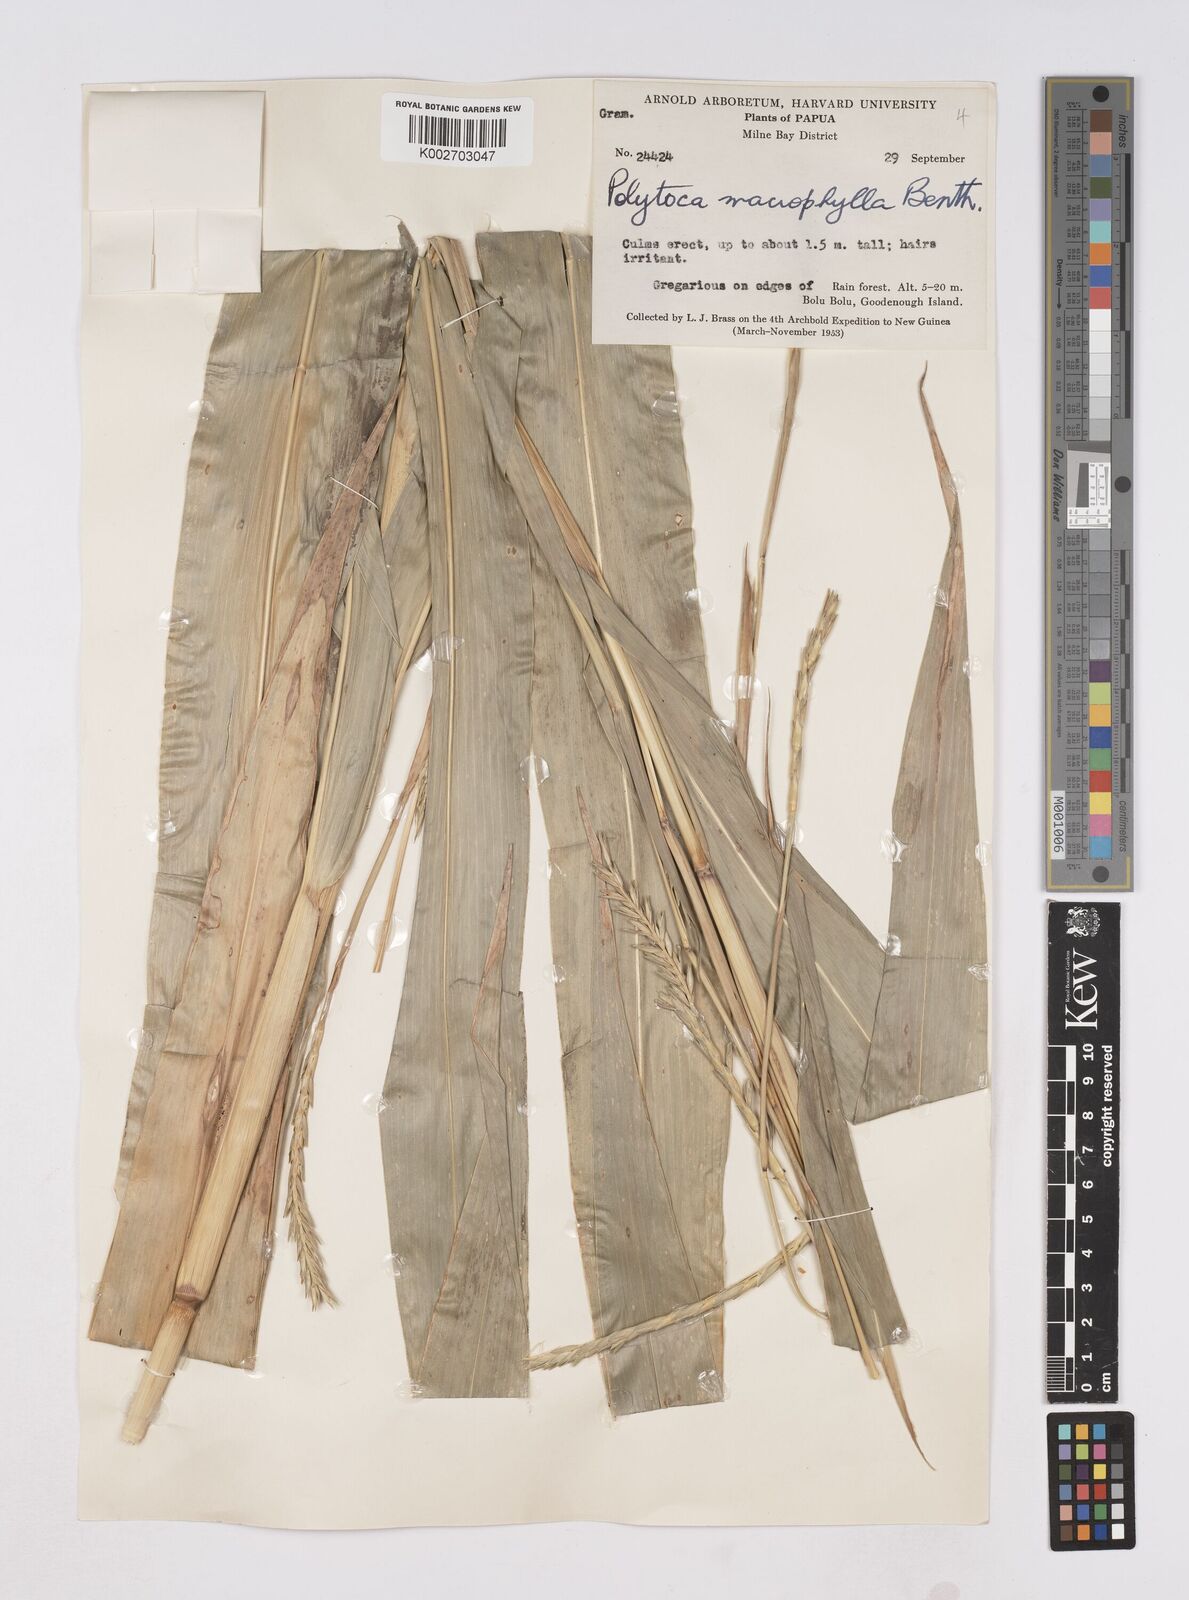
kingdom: Plantae
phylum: Tracheophyta
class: Liliopsida
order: Poales
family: Poaceae
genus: Polytoca
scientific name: Polytoca macrophylla
